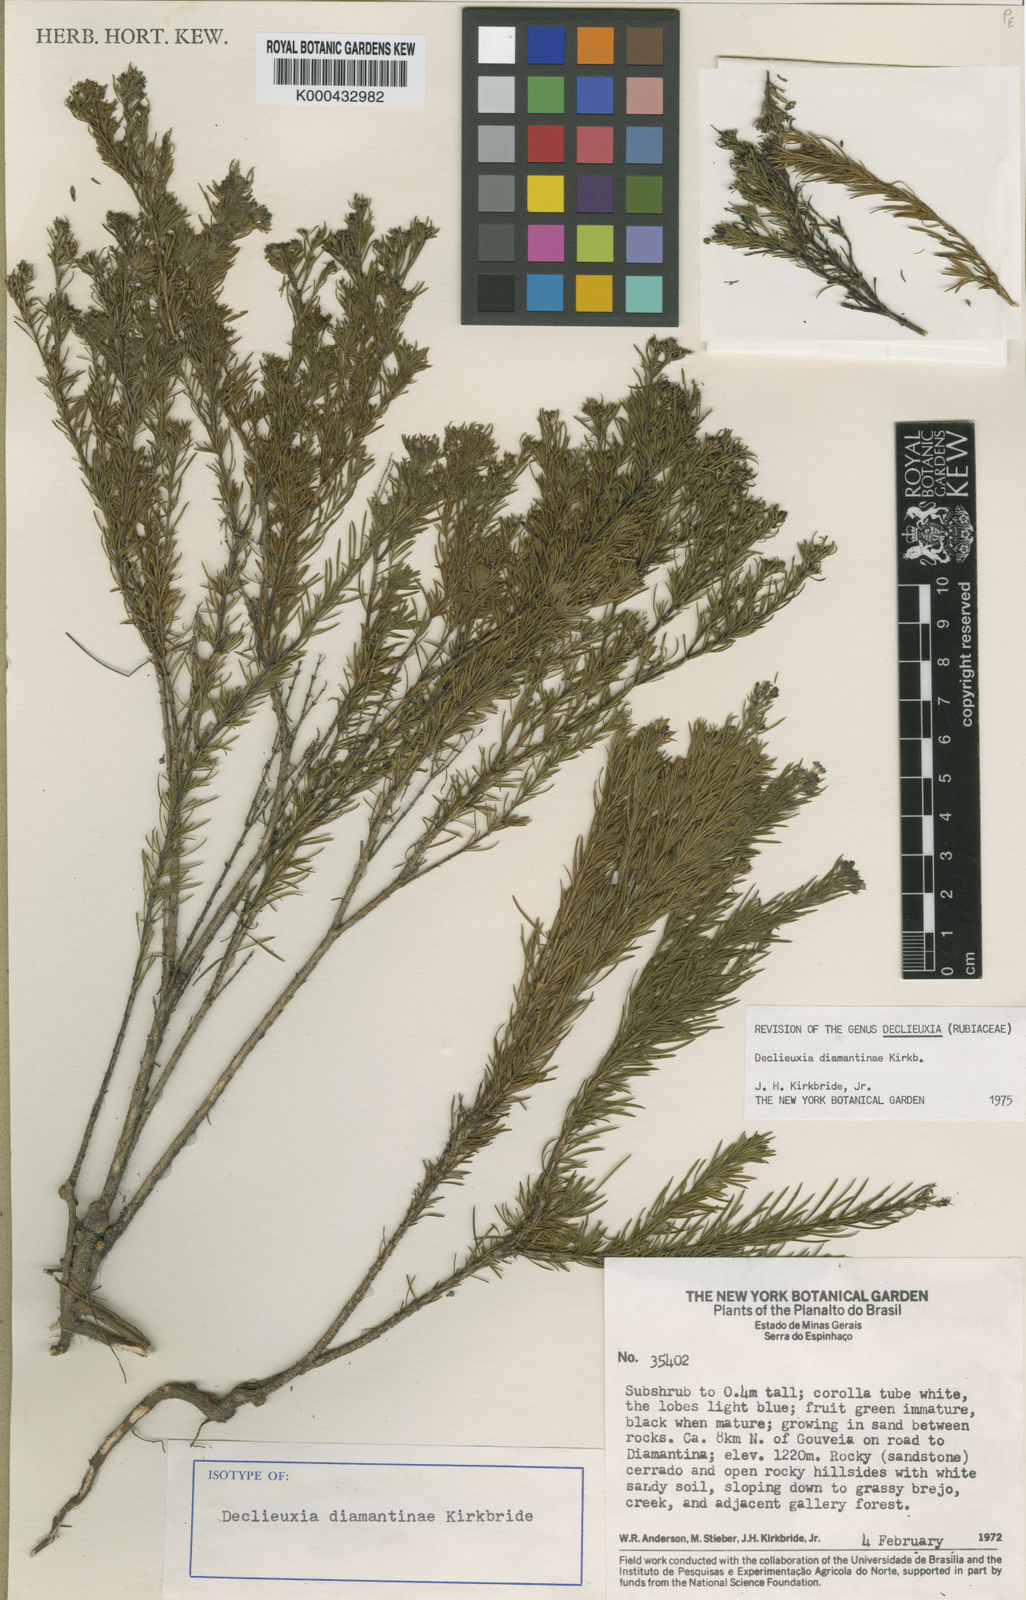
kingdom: Plantae
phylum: Tracheophyta
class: Magnoliopsida
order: Gentianales
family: Rubiaceae
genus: Declieuxia
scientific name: Declieuxia diamantinae
